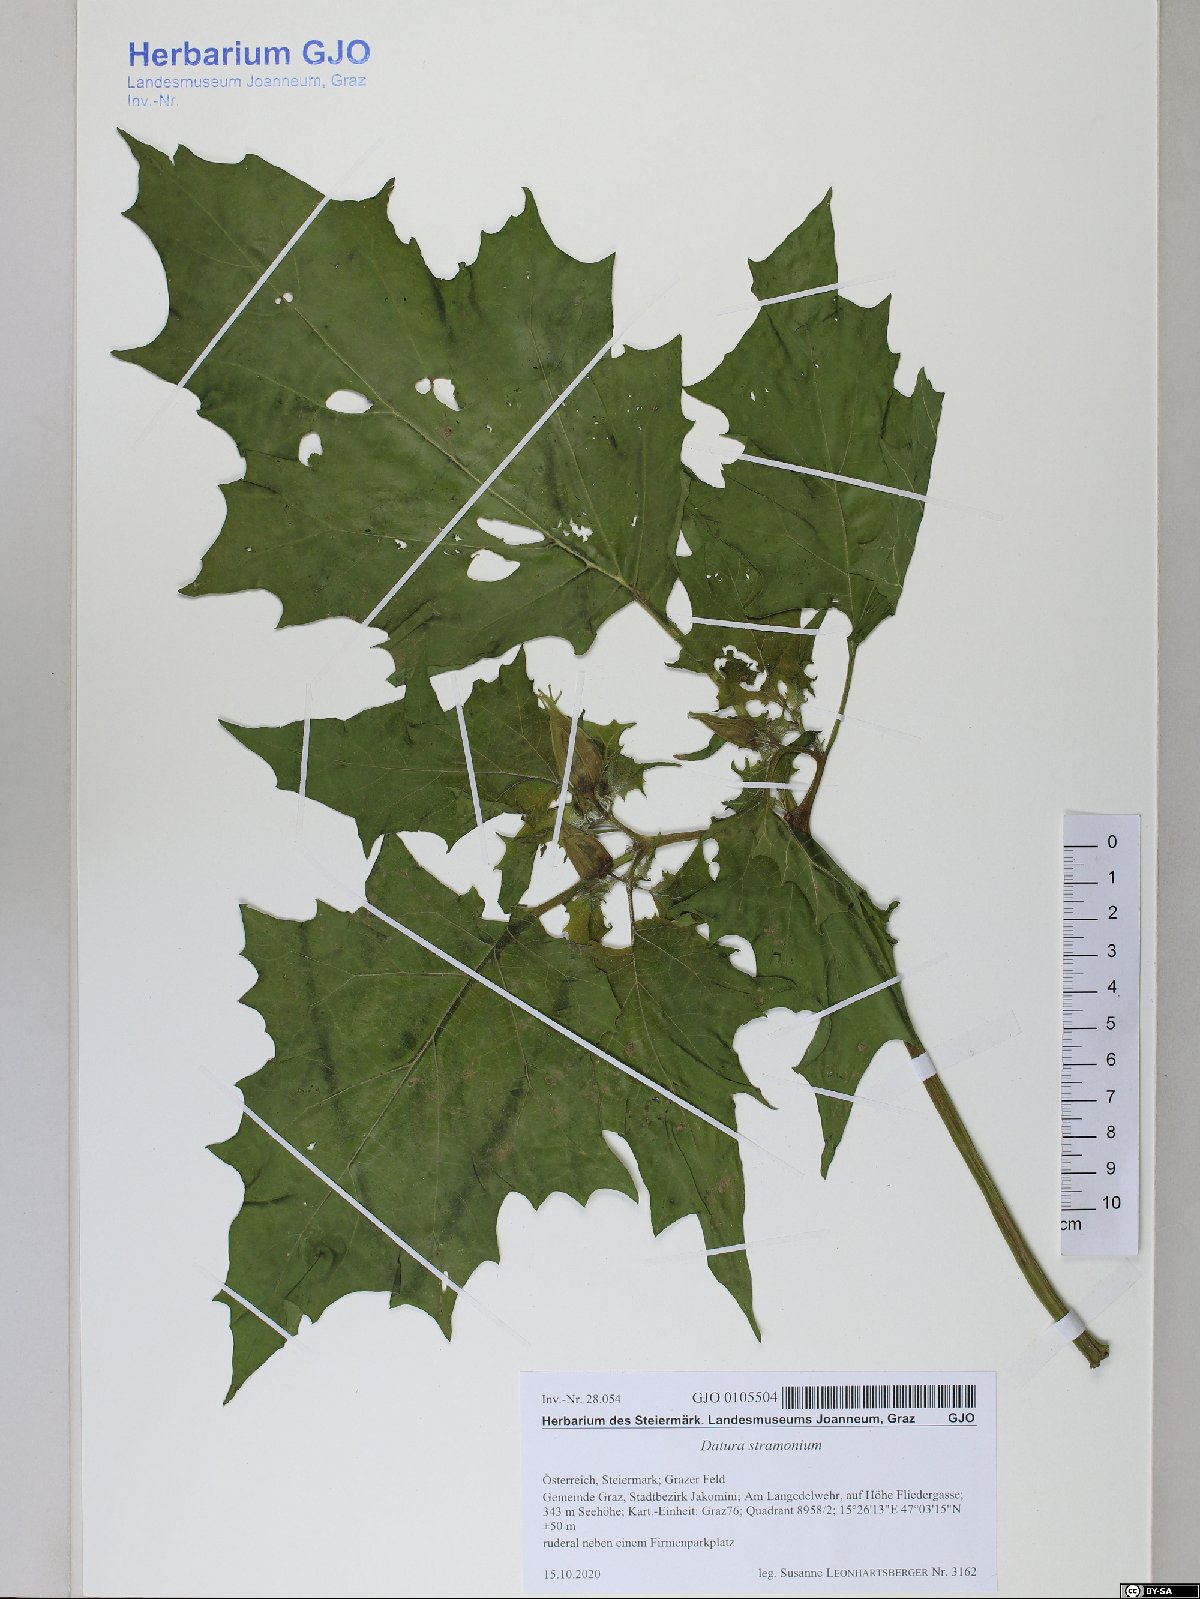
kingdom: Plantae
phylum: Tracheophyta
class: Magnoliopsida
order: Solanales
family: Solanaceae
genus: Datura
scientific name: Datura stramonium
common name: Thorn-apple
